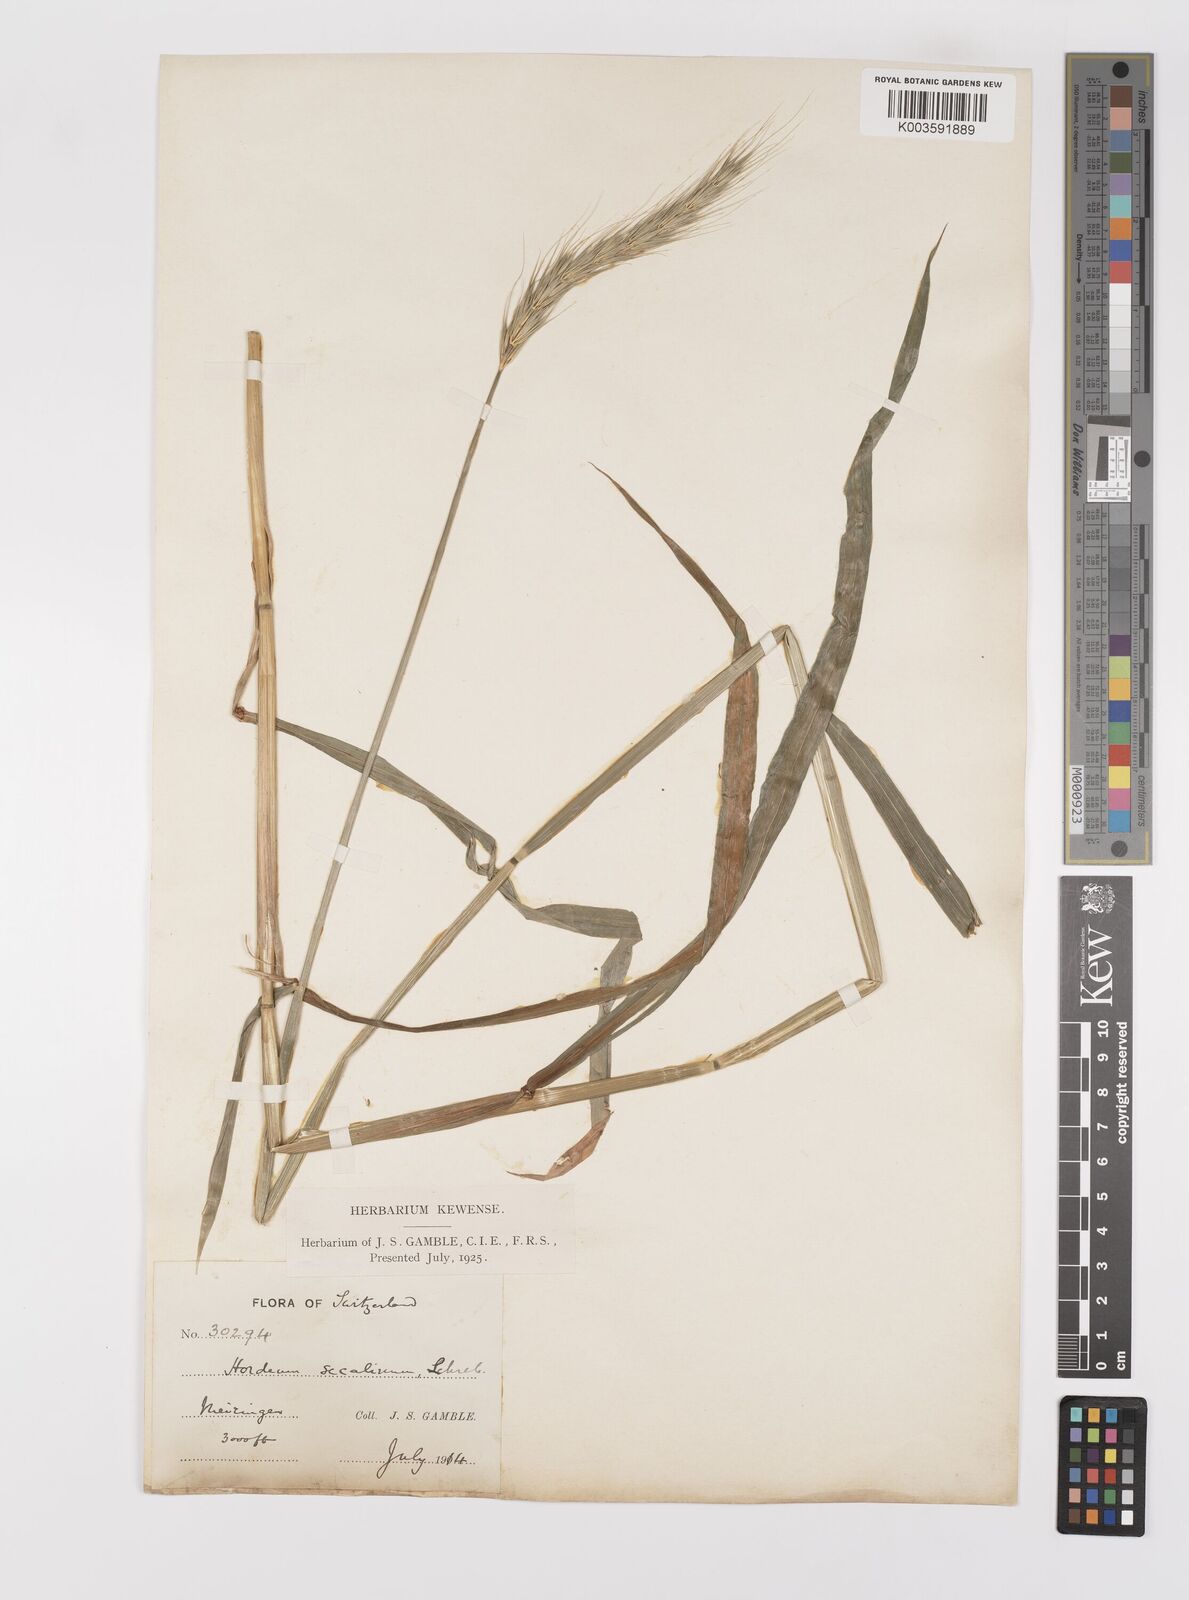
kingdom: Plantae
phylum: Tracheophyta
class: Liliopsida
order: Poales
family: Poaceae
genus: Hordelymus
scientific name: Hordelymus europaeus
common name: Wood-barley
